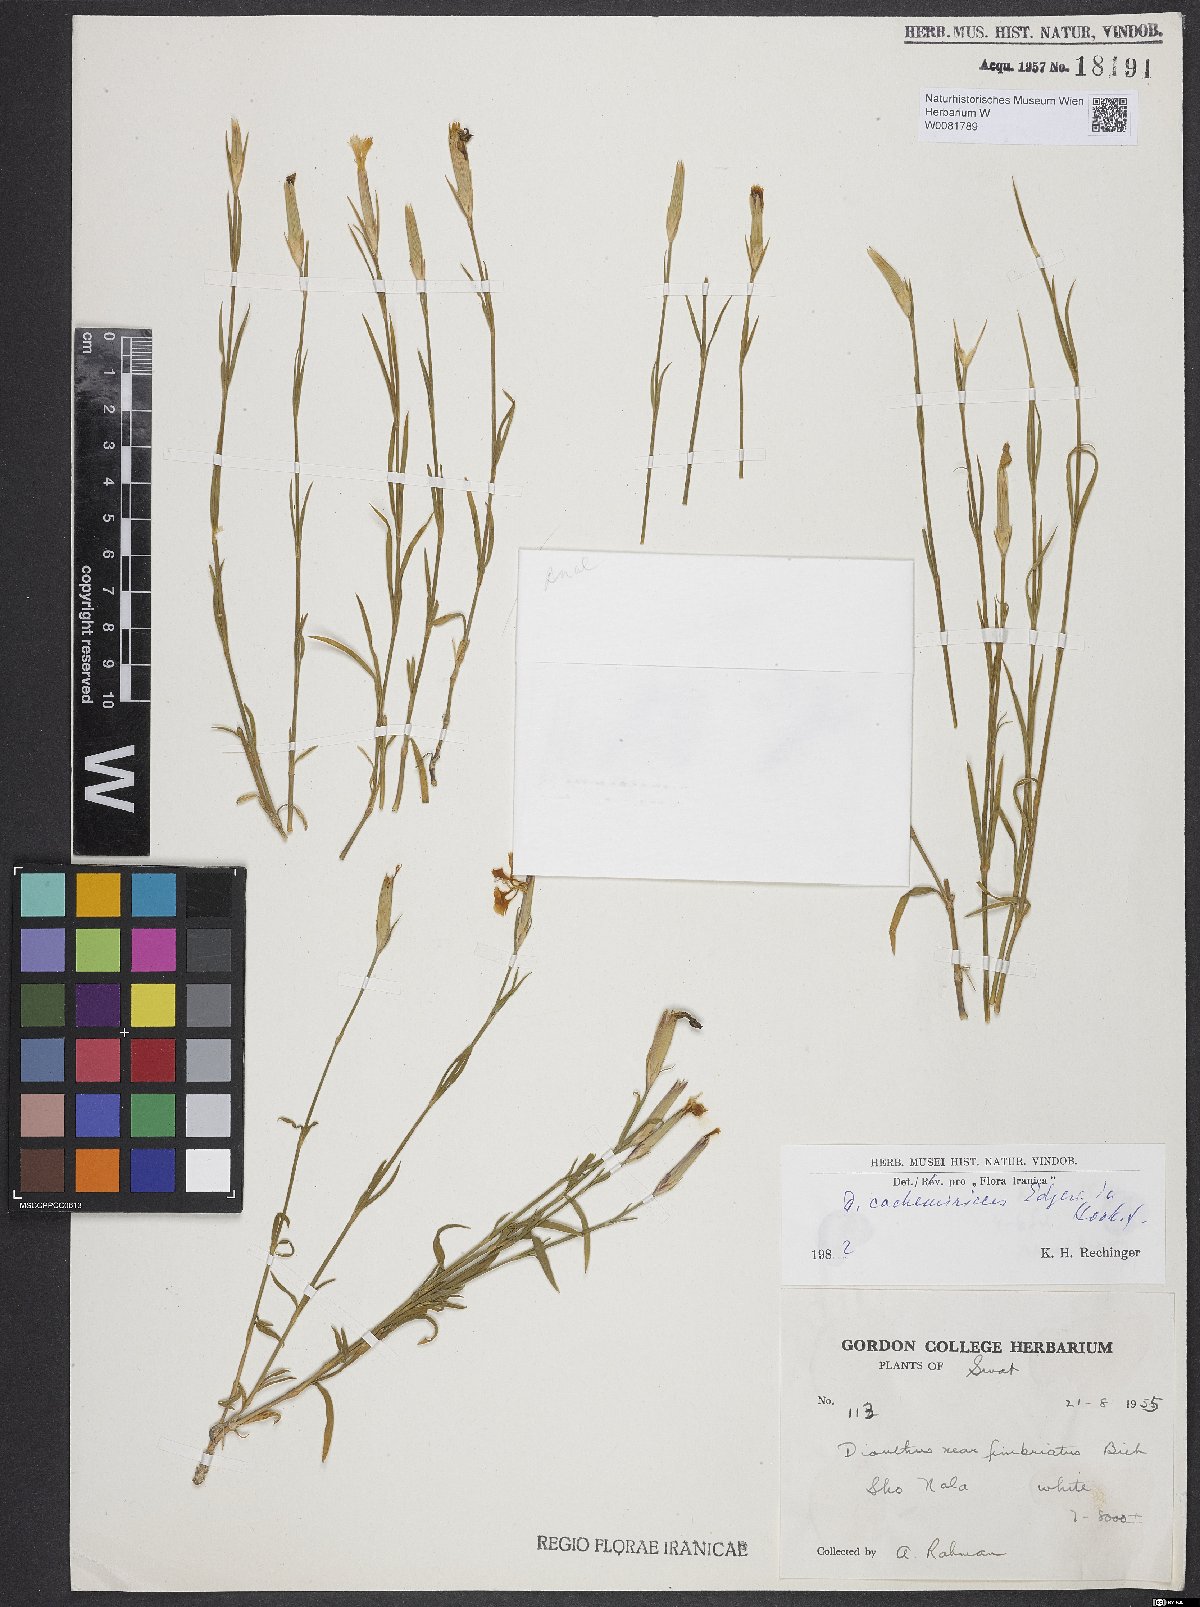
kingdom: Plantae
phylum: Tracheophyta
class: Magnoliopsida
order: Caryophyllales
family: Caryophyllaceae
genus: Dianthus
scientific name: Dianthus cachemiricus
